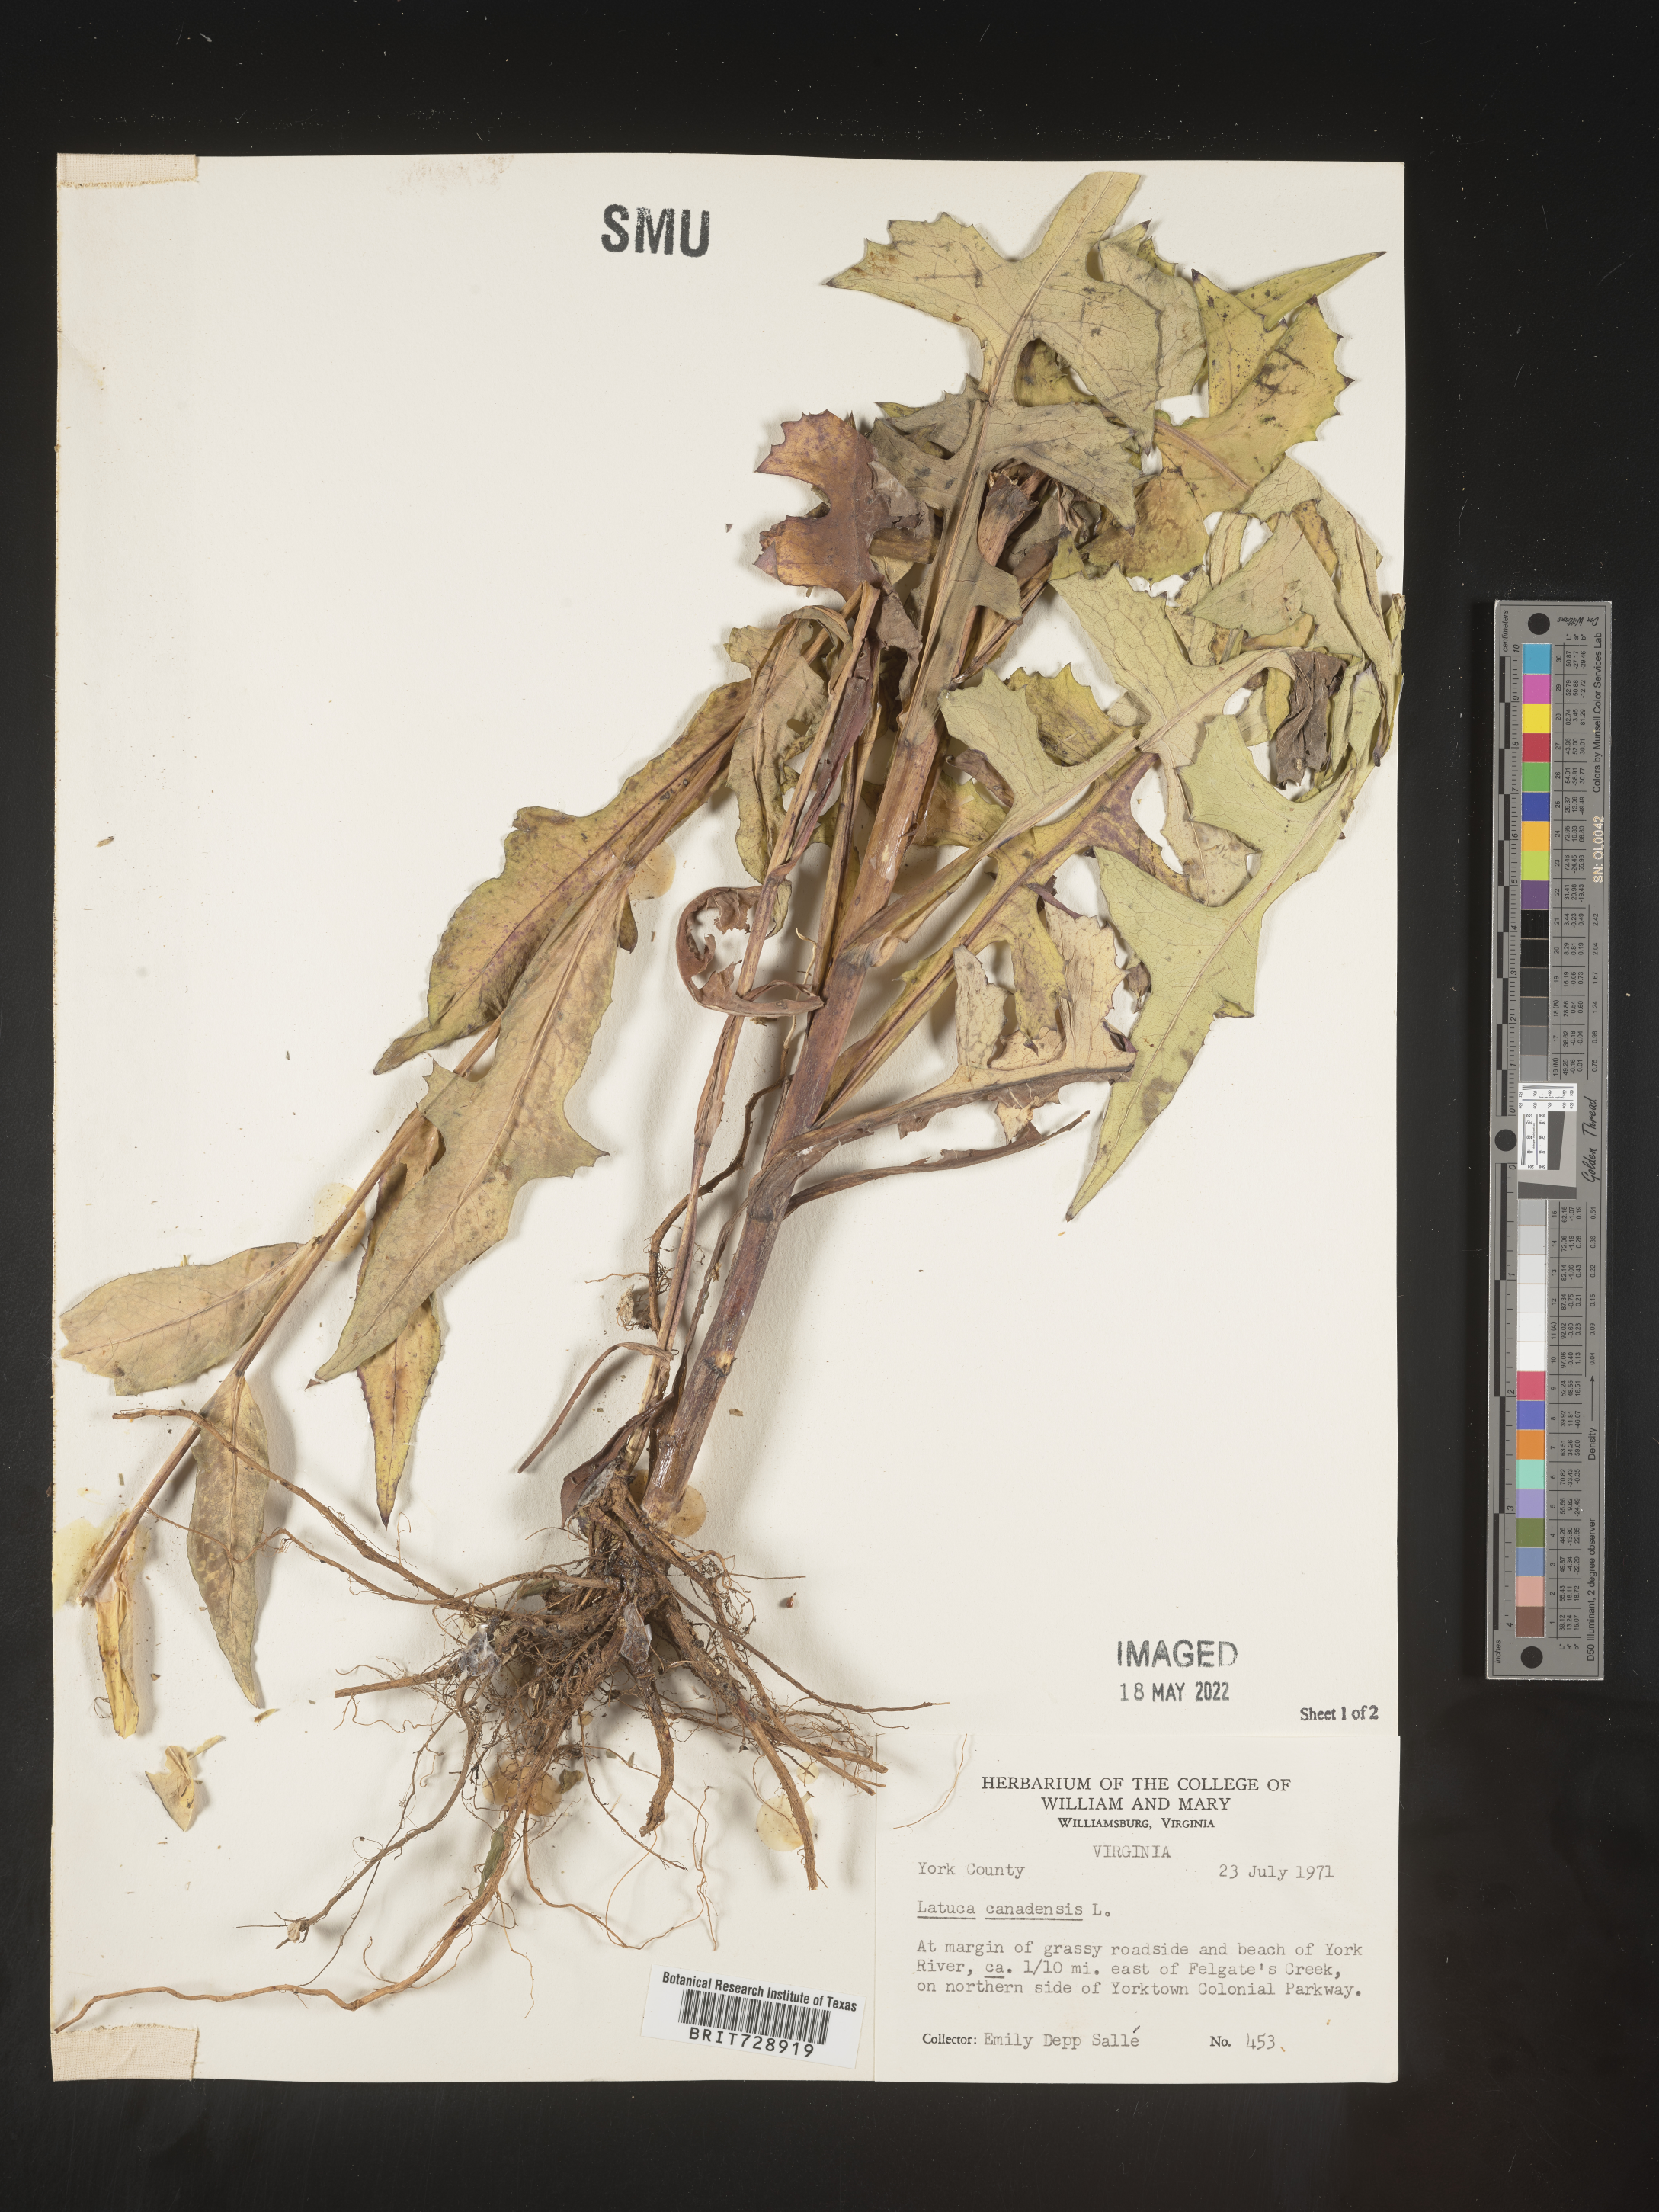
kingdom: Plantae
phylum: Tracheophyta
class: Magnoliopsida
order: Asterales
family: Asteraceae
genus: Lactuca
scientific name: Lactuca canadensis
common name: Canada lettuce
